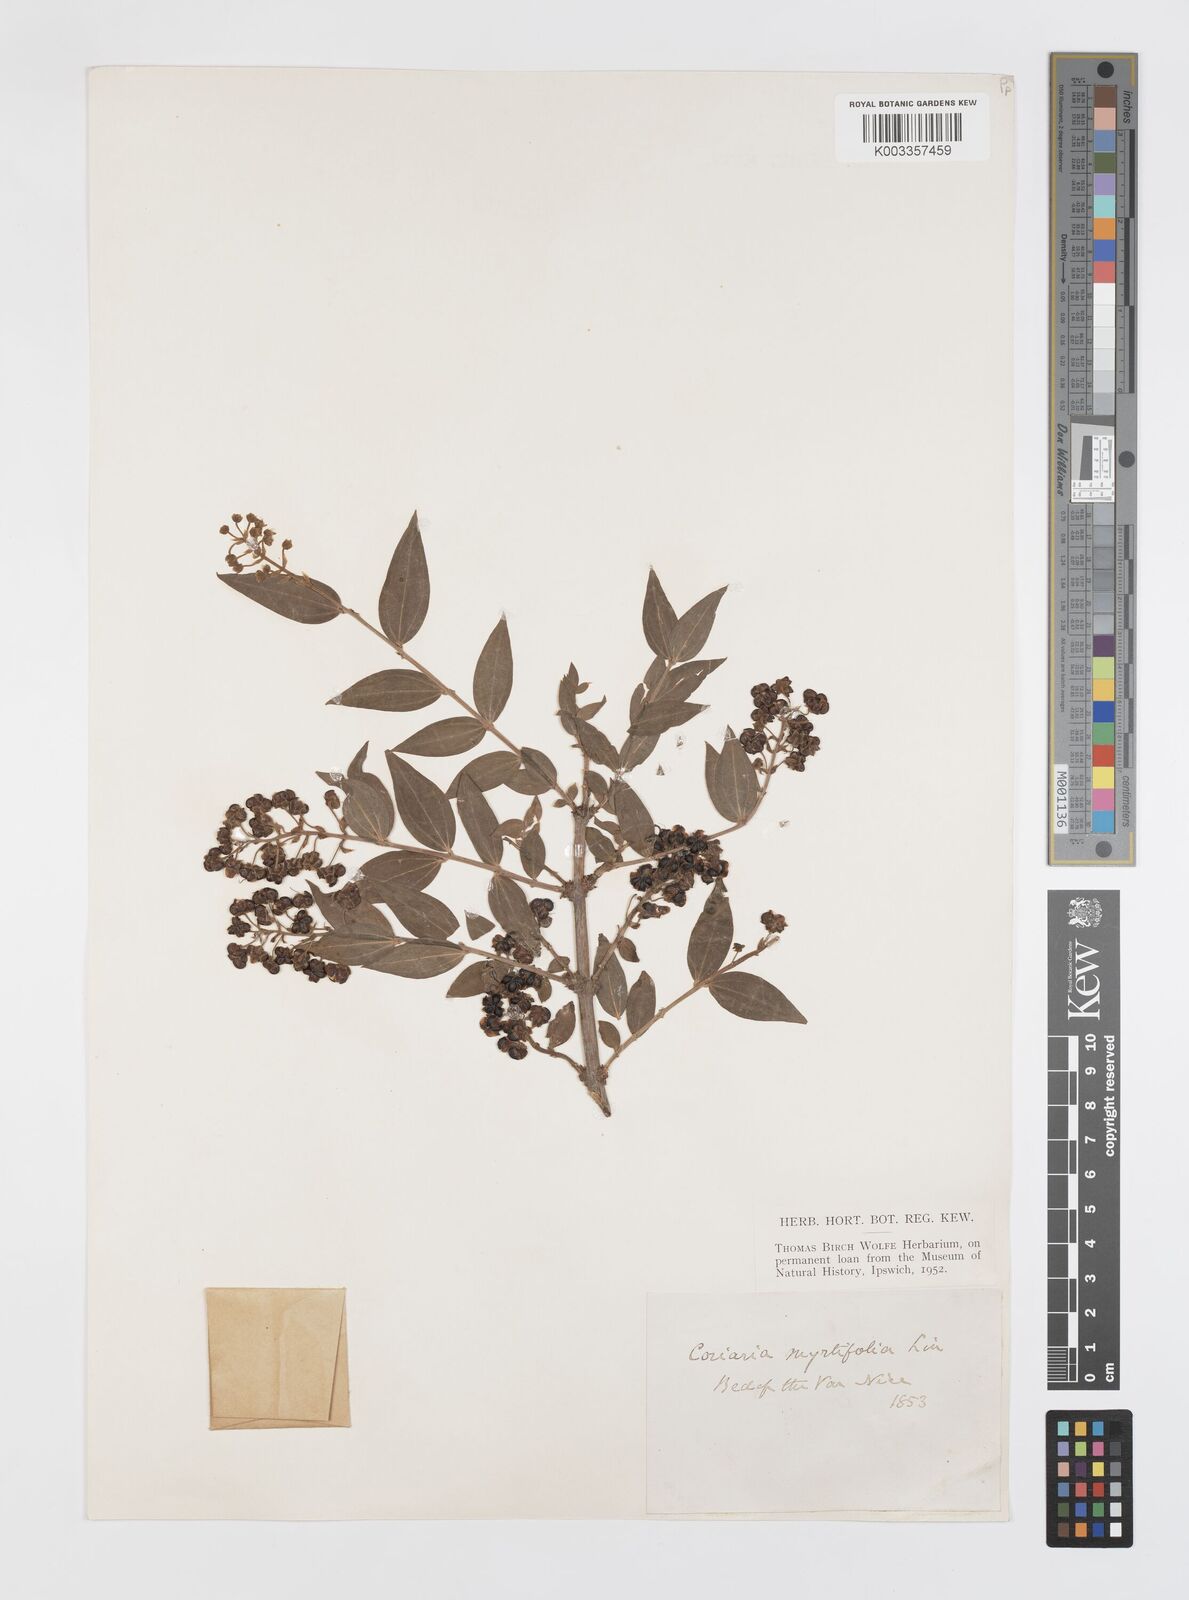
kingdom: Plantae
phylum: Tracheophyta
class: Magnoliopsida
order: Cucurbitales
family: Coriariaceae
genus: Coriaria
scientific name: Coriaria myrtifolia
